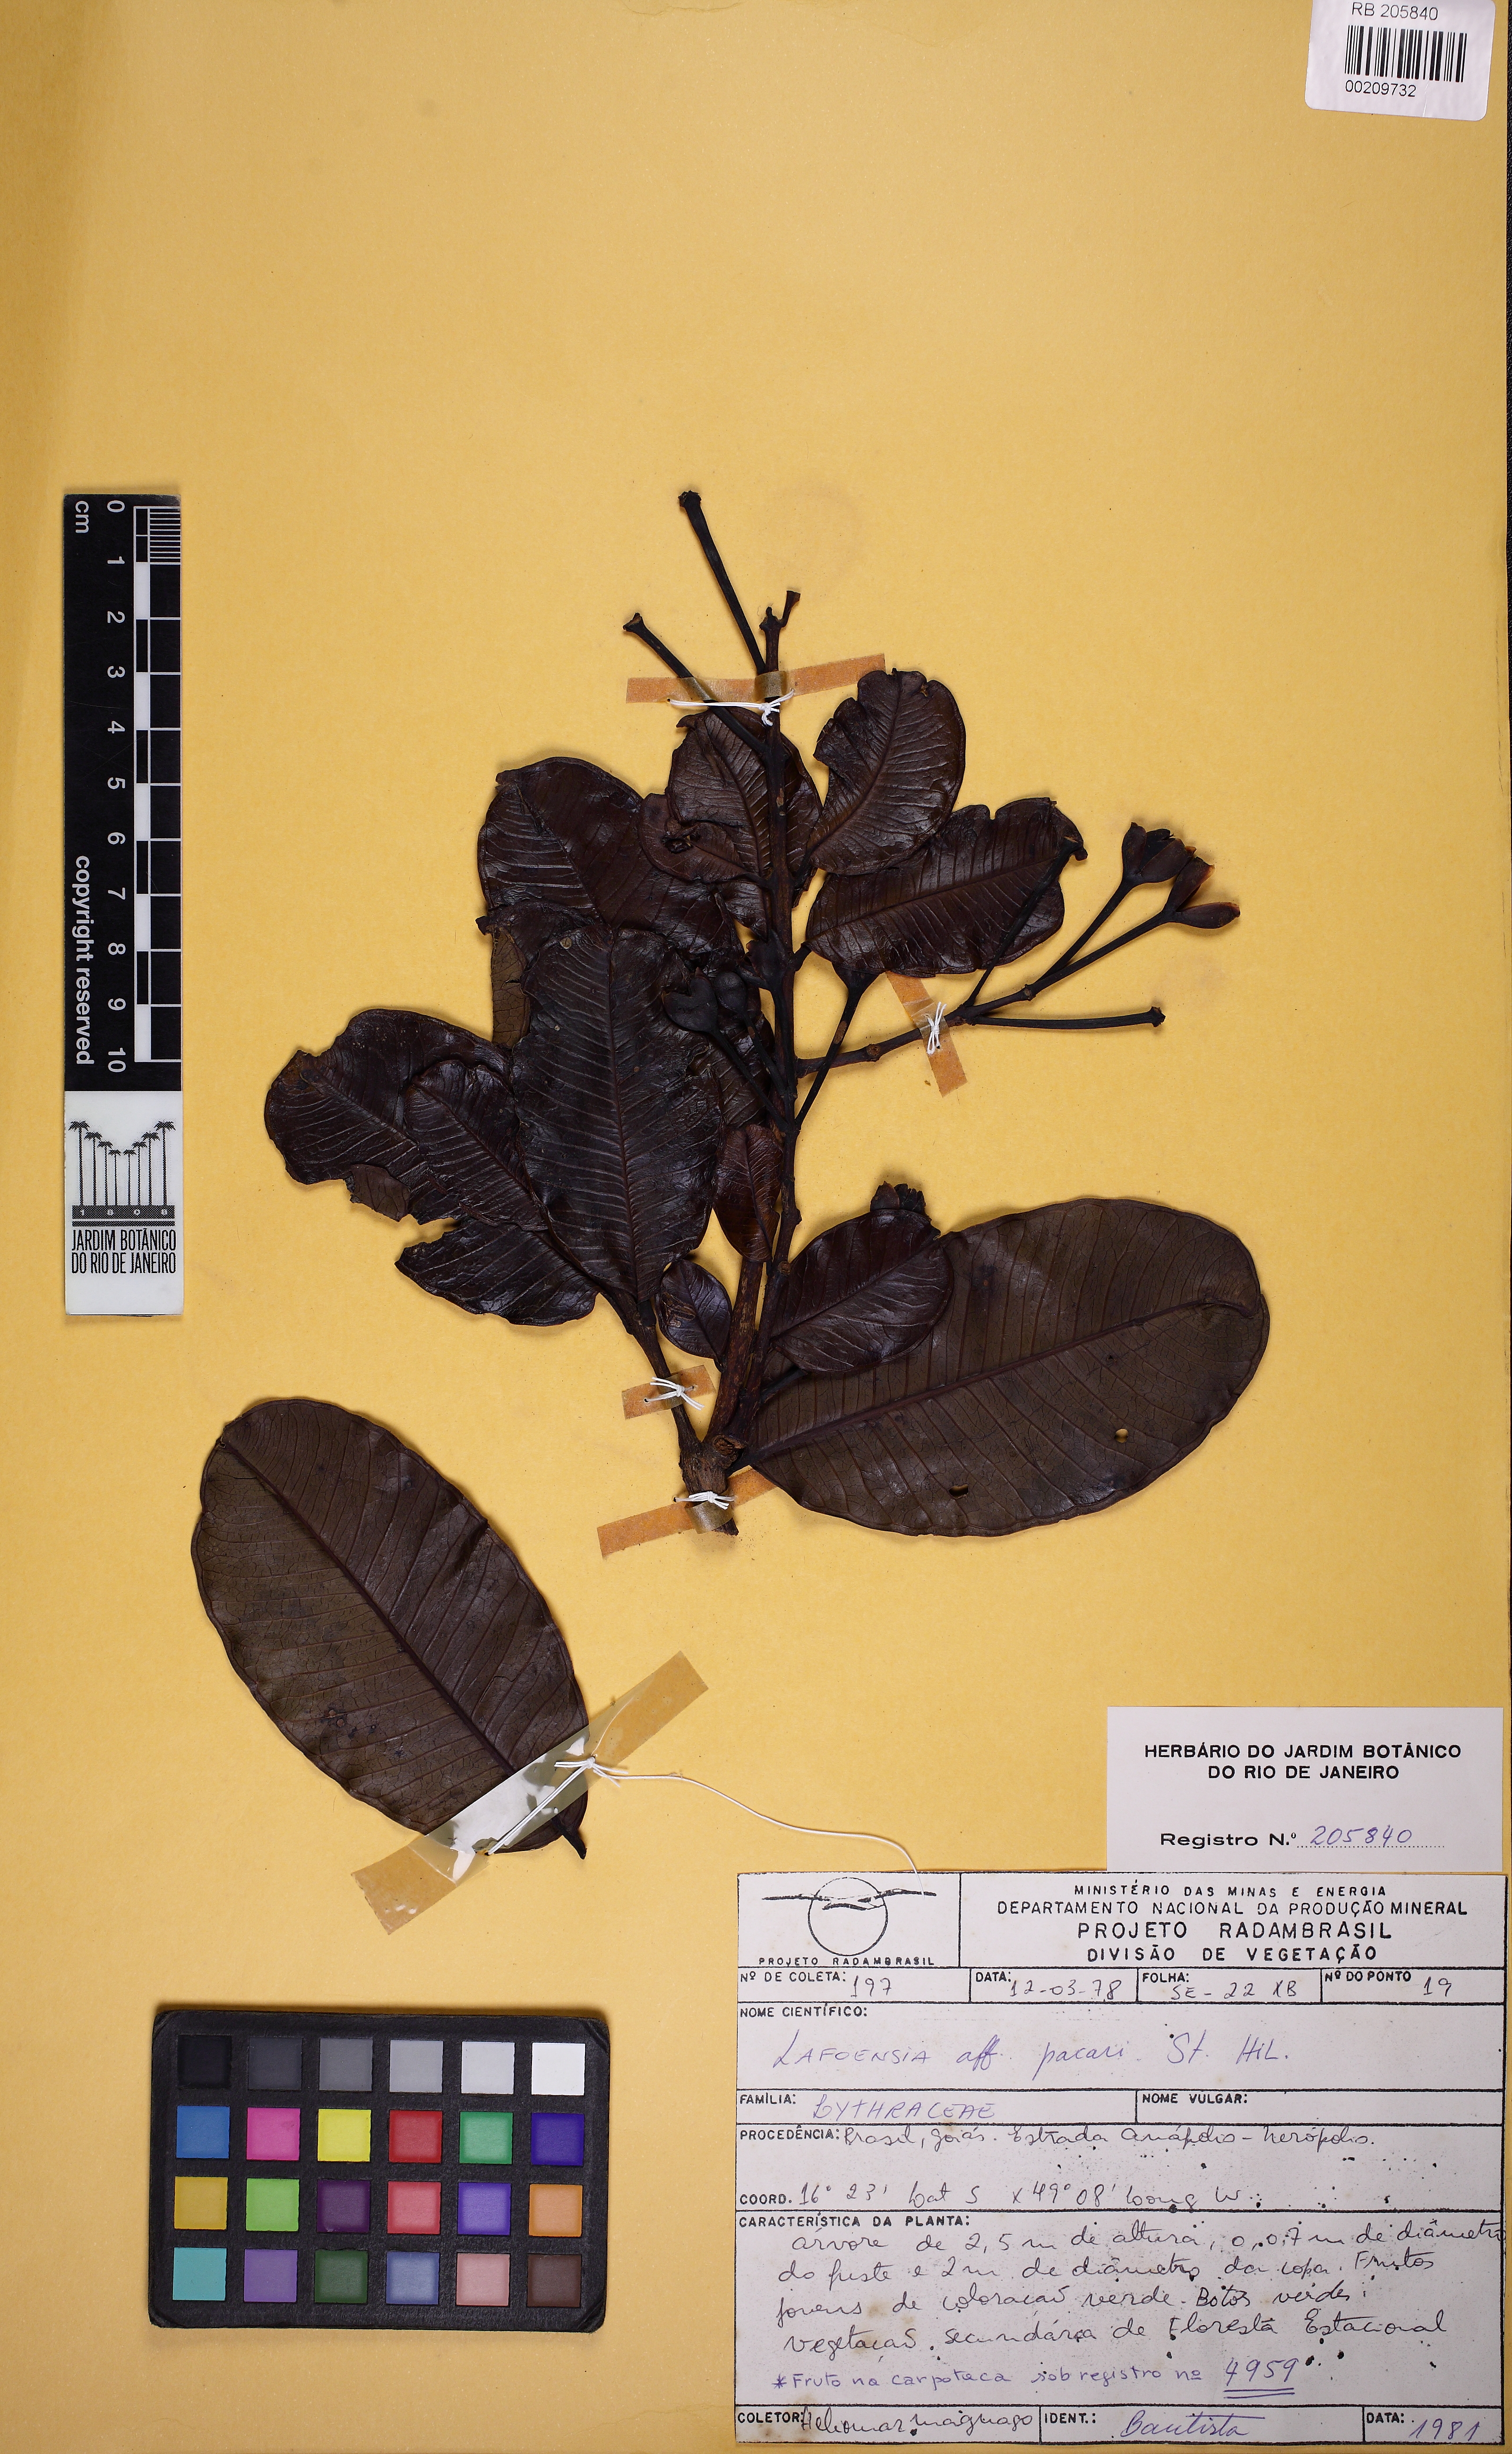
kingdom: Plantae
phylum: Tracheophyta
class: Magnoliopsida
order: Myrtales
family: Lythraceae
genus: Lafoensia
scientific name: Lafoensia pacari
